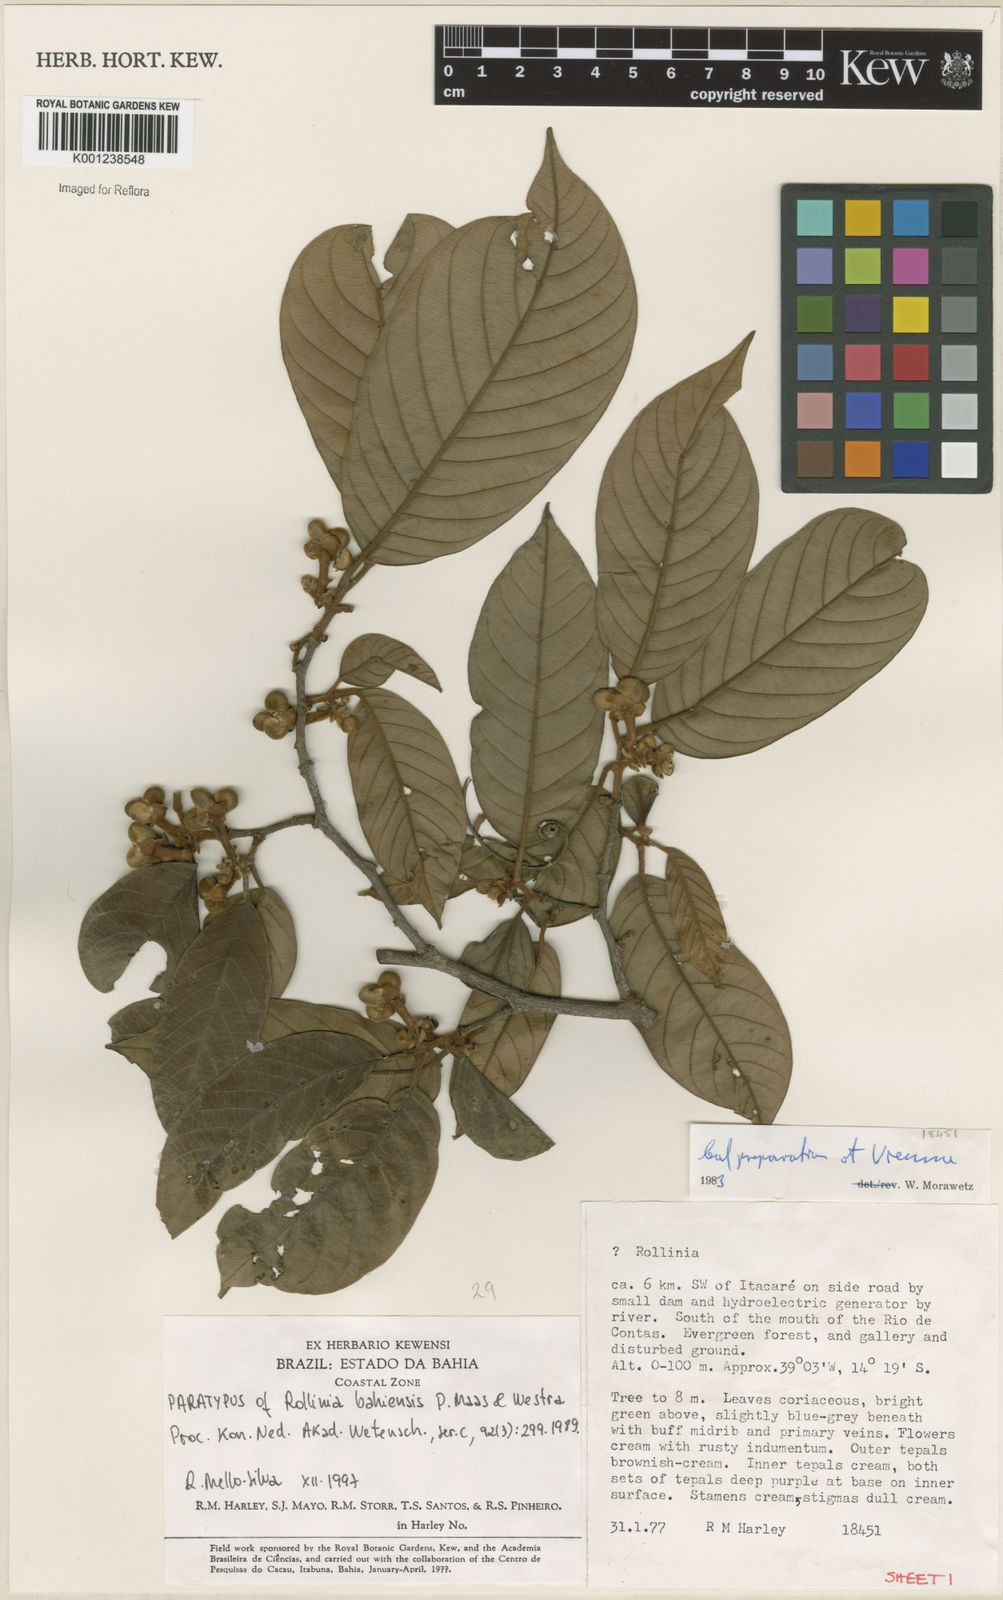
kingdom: Plantae
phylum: Tracheophyta
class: Magnoliopsida
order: Magnoliales
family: Annonaceae
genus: Annona
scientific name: Annona bahiensis
